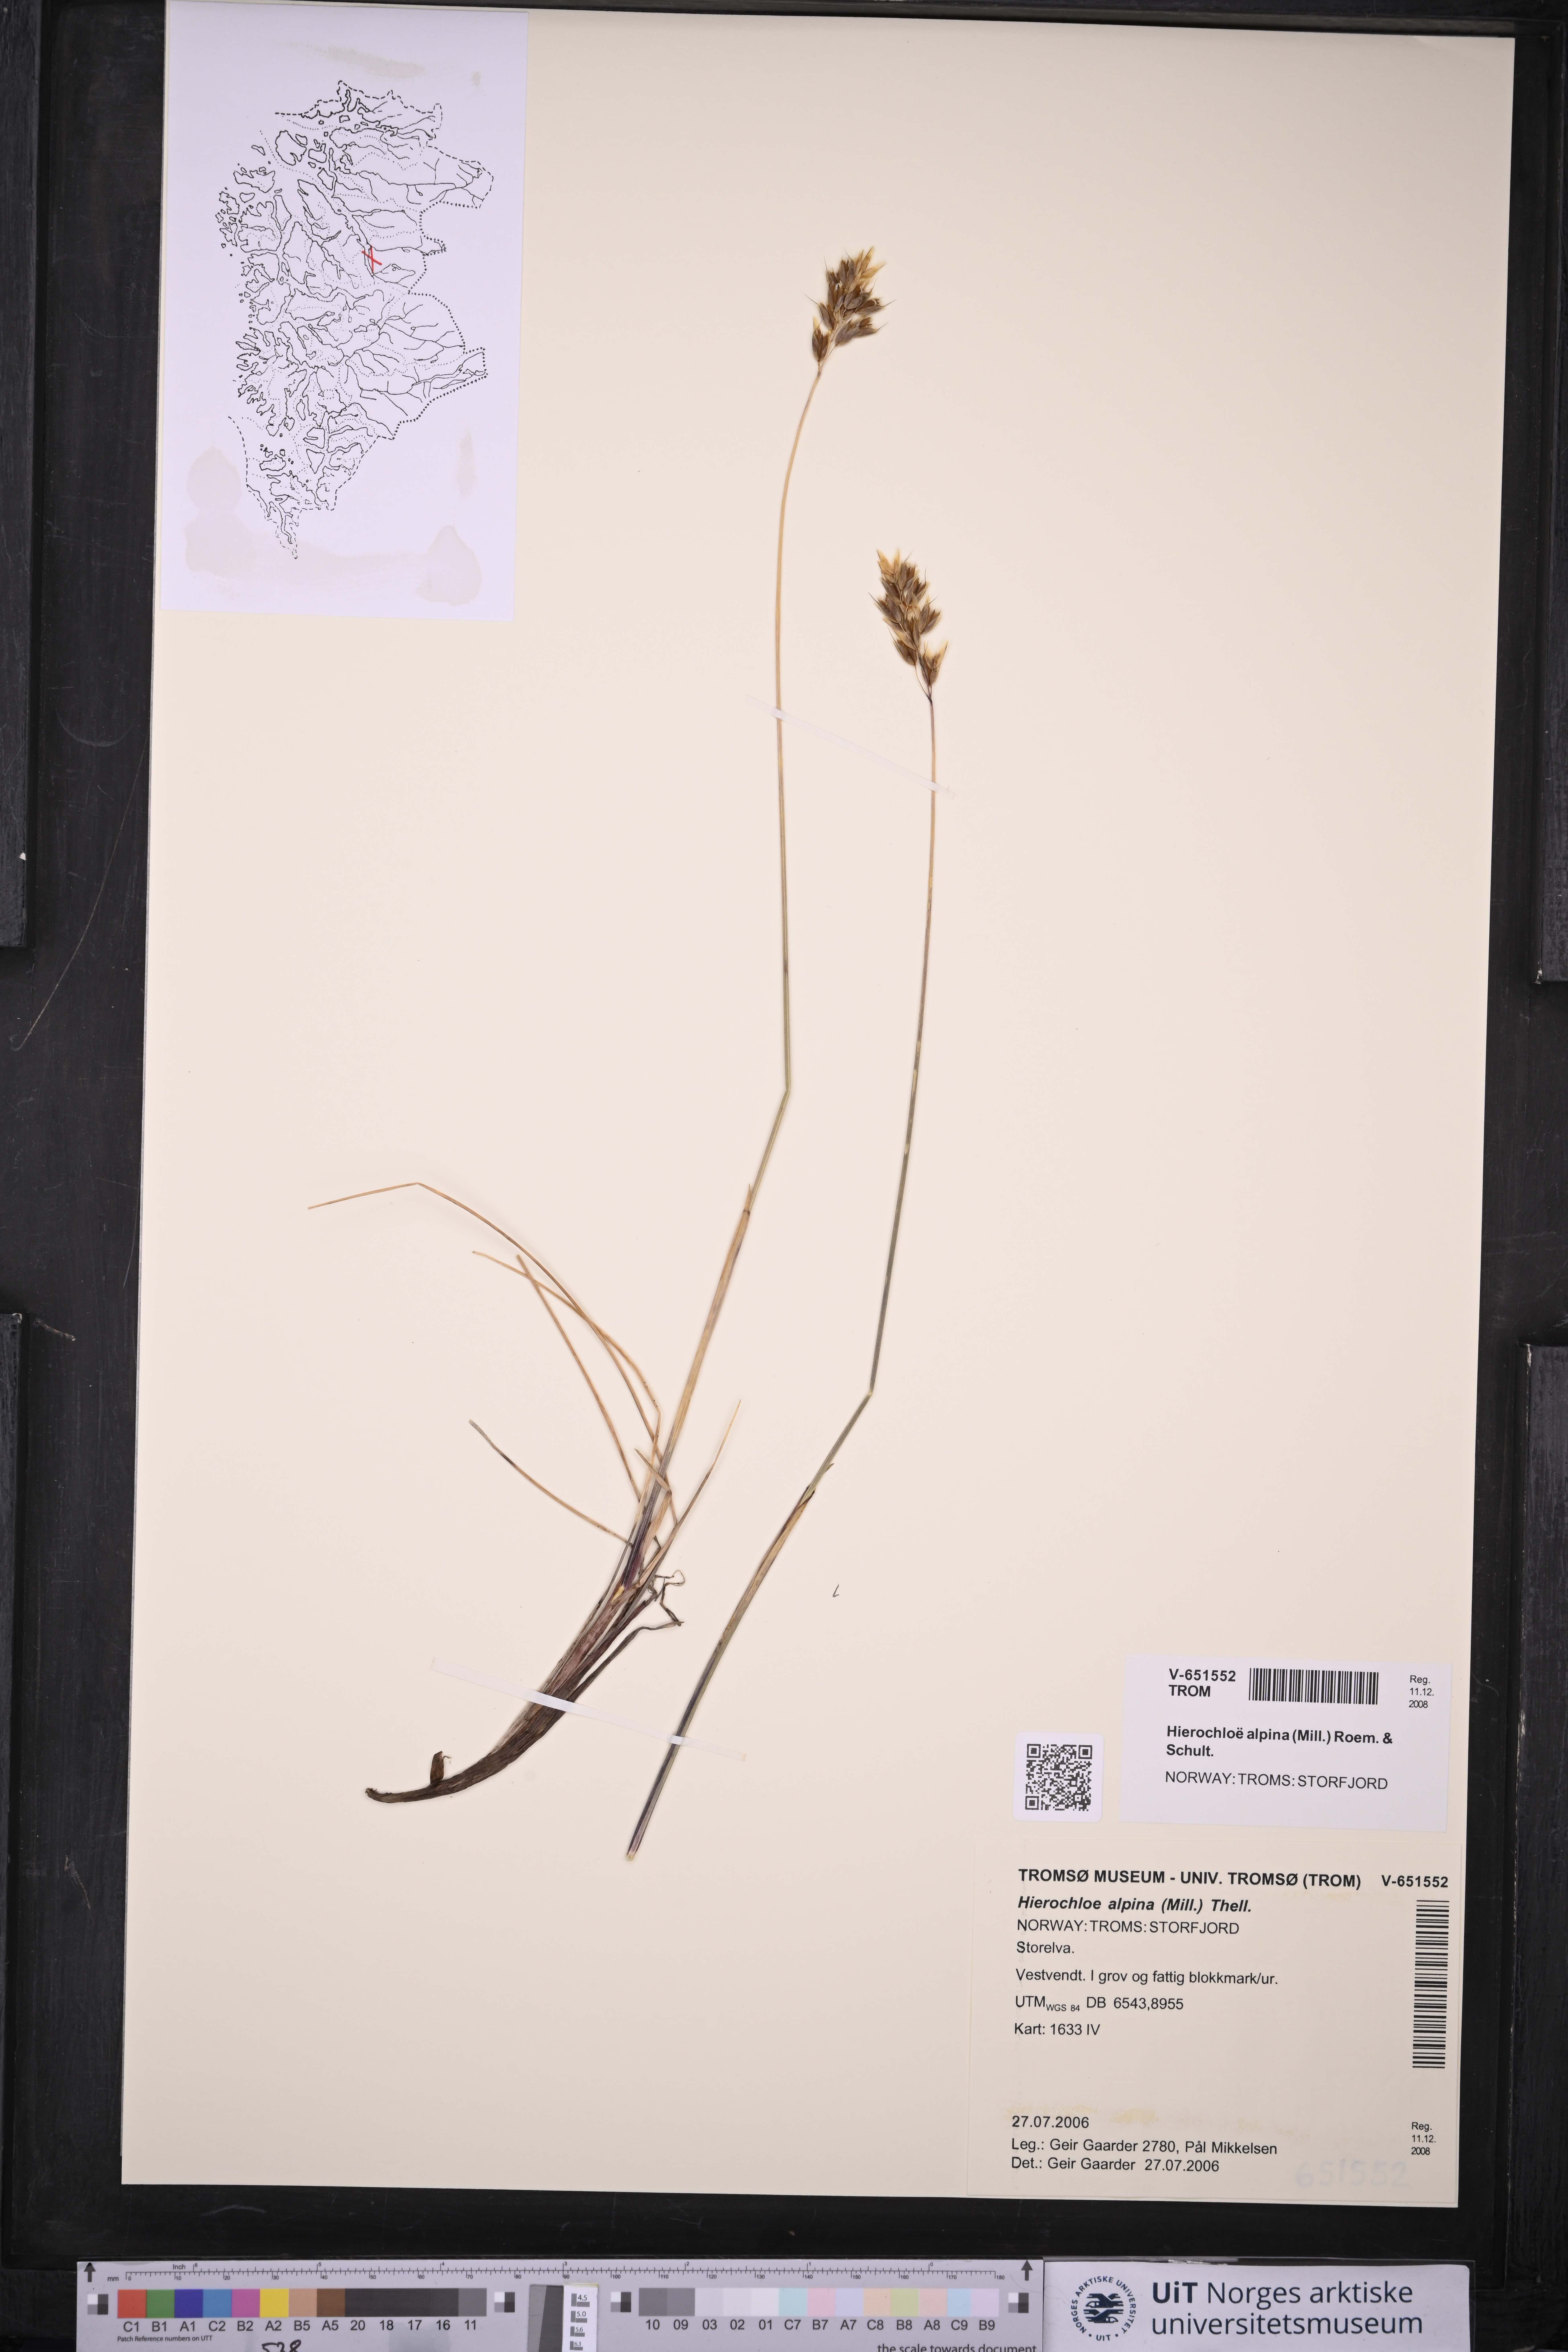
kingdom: Plantae
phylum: Tracheophyta
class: Liliopsida
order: Poales
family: Poaceae
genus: Anthoxanthum
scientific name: Anthoxanthum monticola
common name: Alpine sweetgrass
